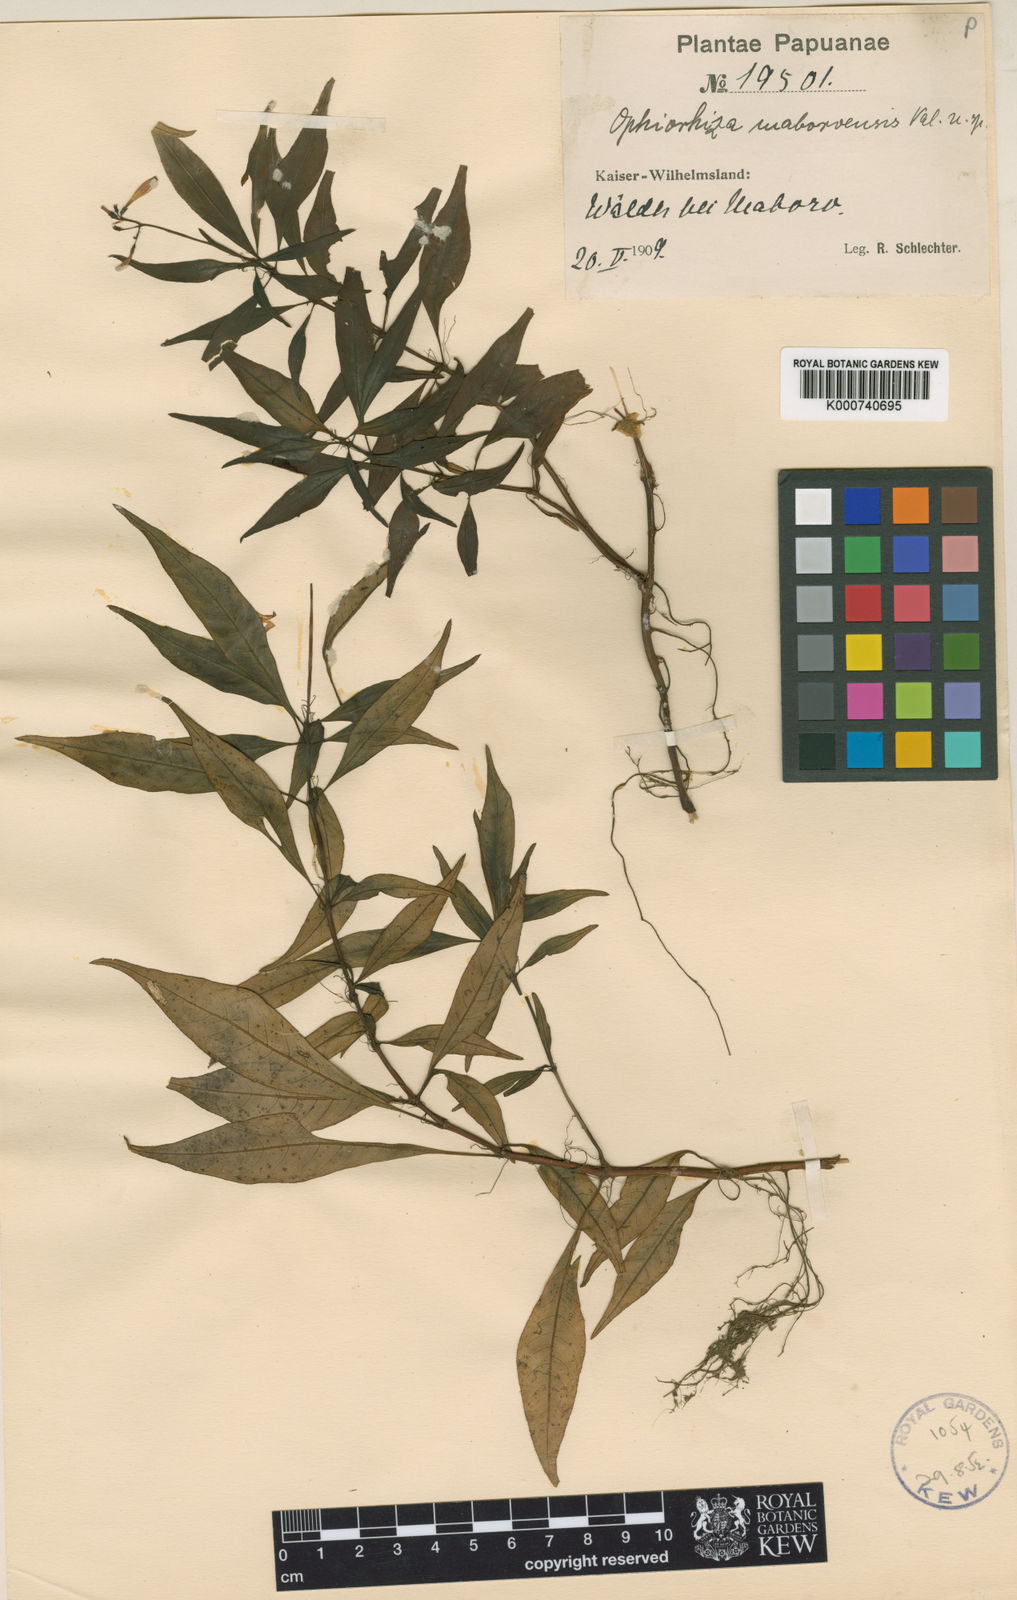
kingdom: Plantae
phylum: Tracheophyta
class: Magnoliopsida
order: Gentianales
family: Rubiaceae
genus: Ophiorrhiza
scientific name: Ophiorrhiza maboroensis
